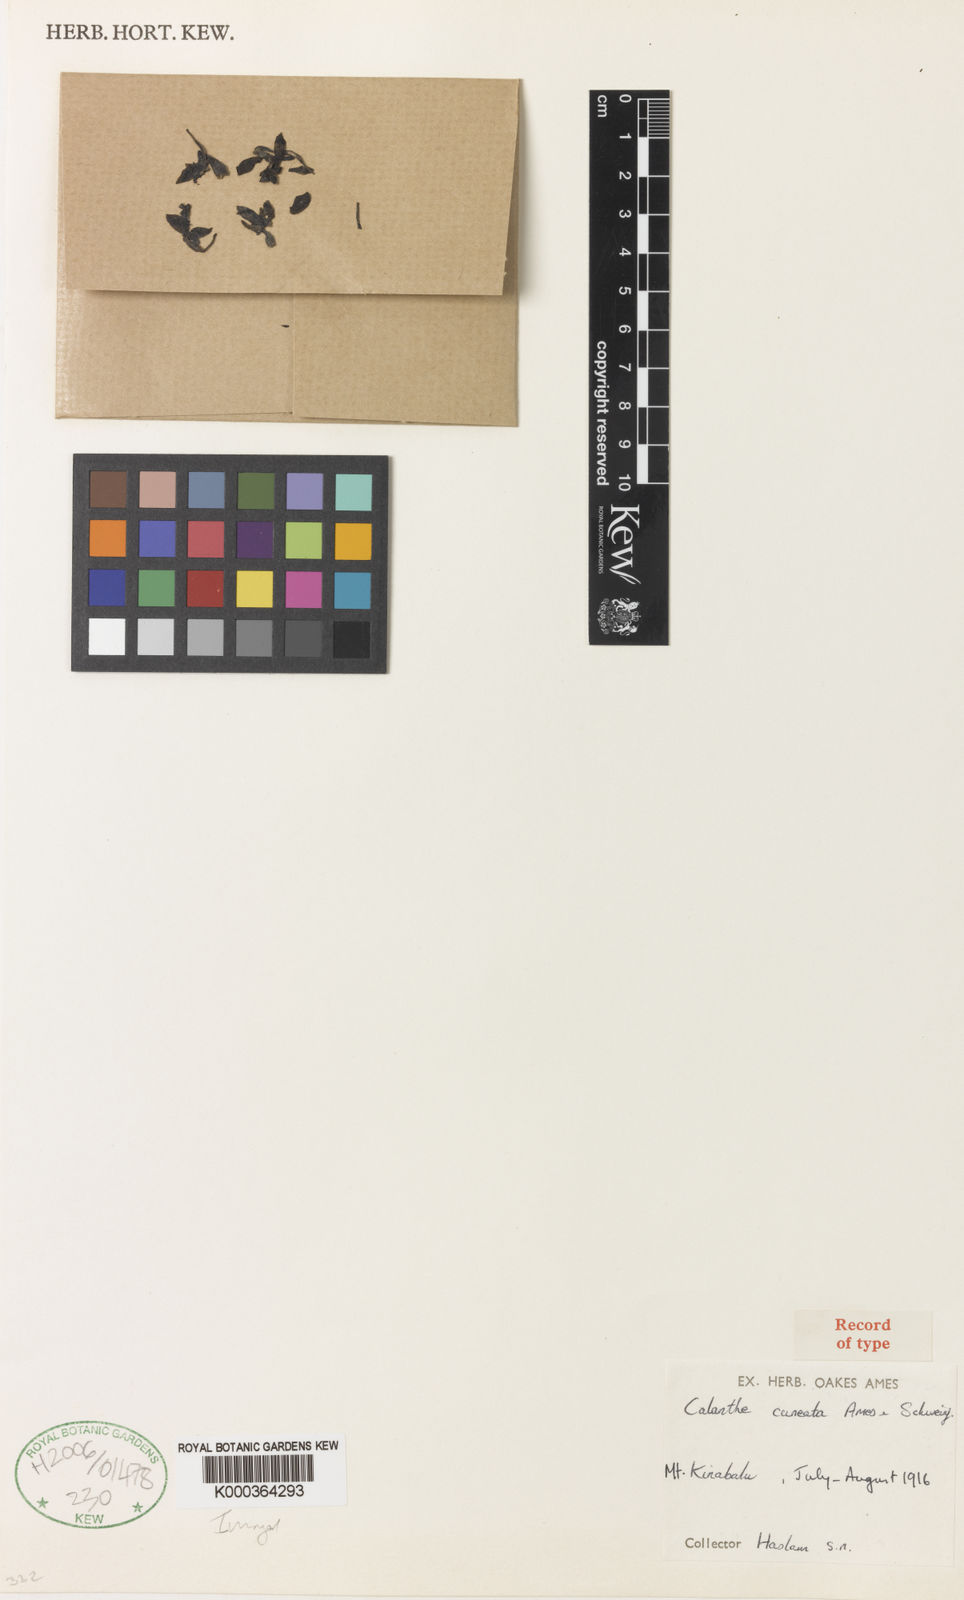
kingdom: Plantae
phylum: Tracheophyta
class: Liliopsida
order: Asparagales
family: Orchidaceae
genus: Calanthe
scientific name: Calanthe kinabaluensis
